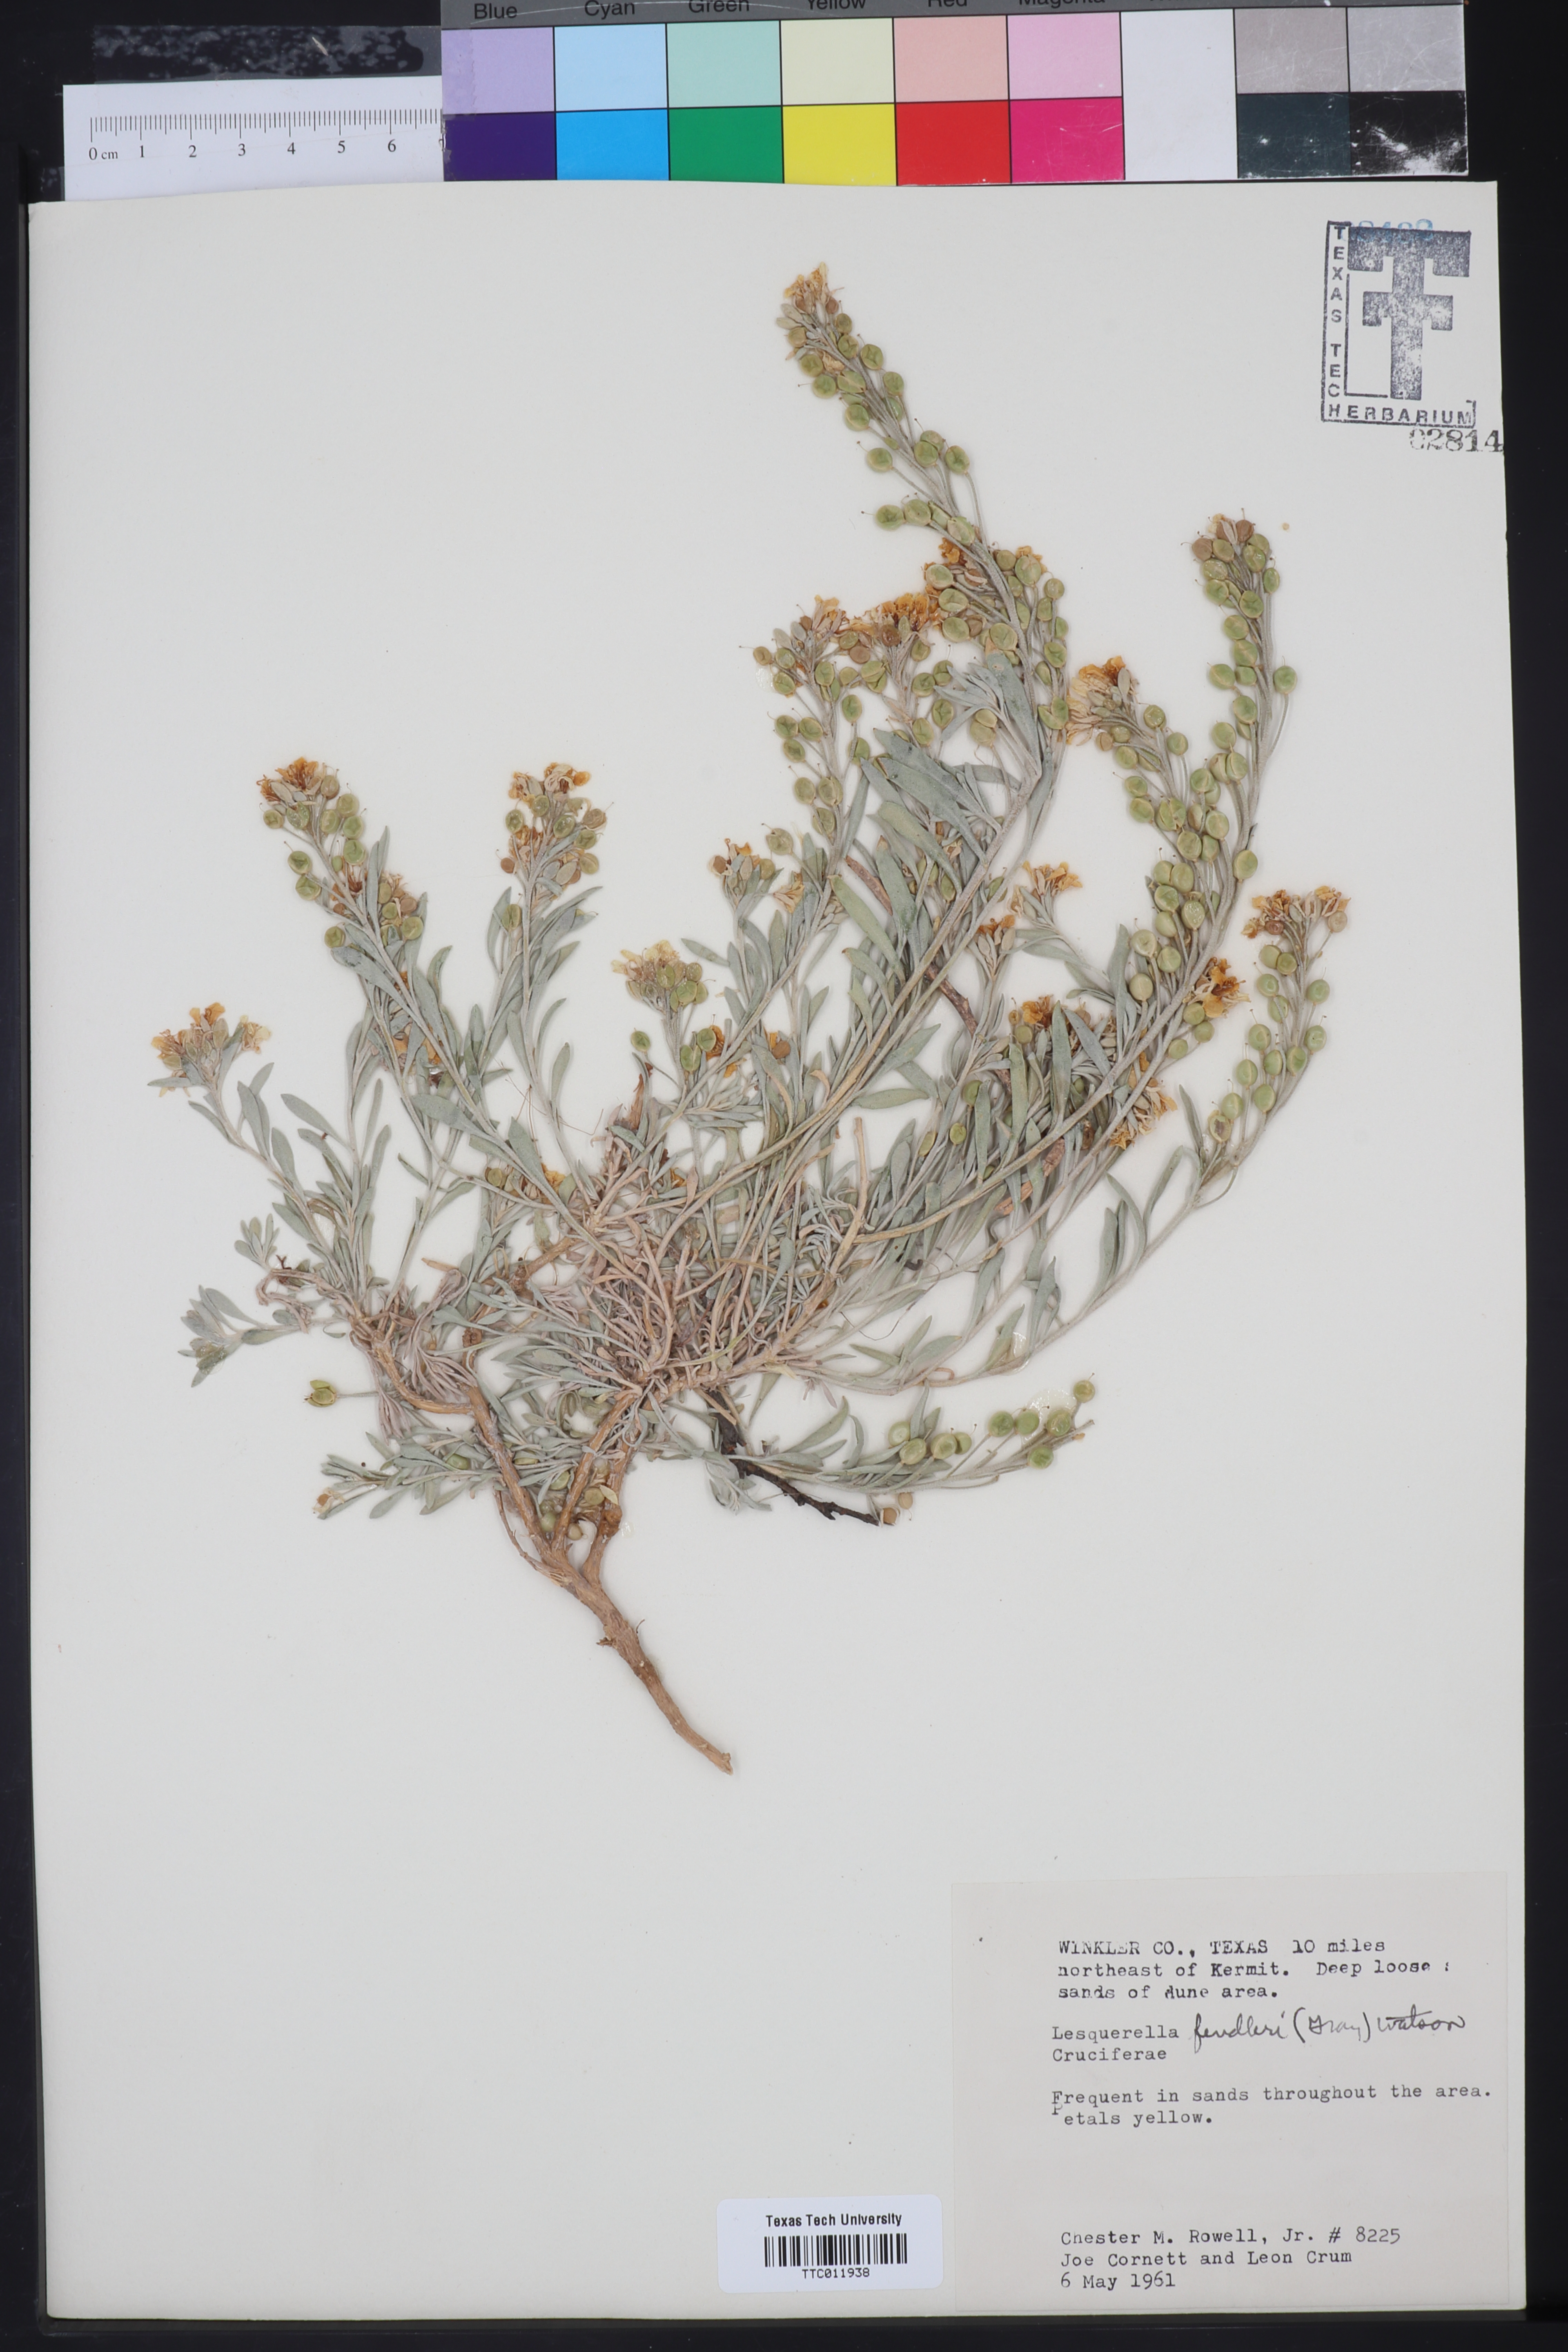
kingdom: Plantae
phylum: Tracheophyta
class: Magnoliopsida
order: Brassicales
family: Brassicaceae
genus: Physaria
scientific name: Physaria fendleri
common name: Fendler's bladderpod
